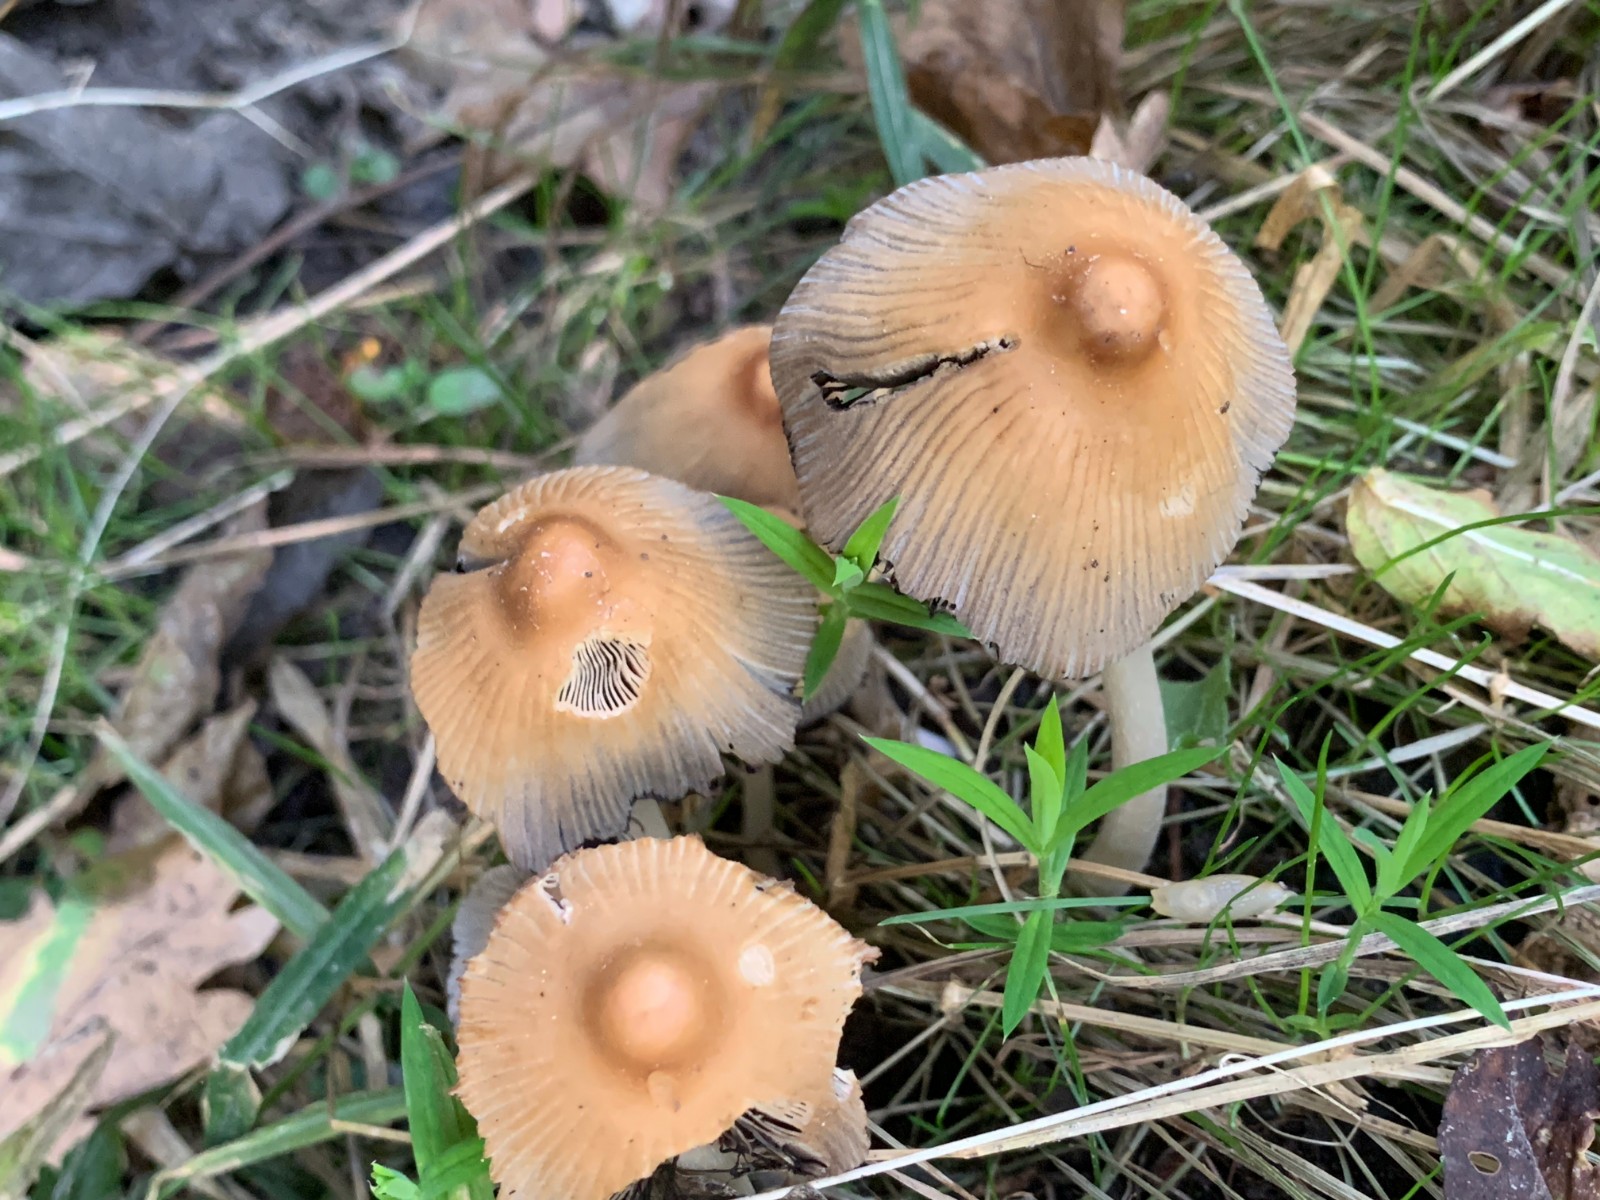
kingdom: Fungi
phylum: Basidiomycota
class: Agaricomycetes
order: Agaricales
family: Psathyrellaceae
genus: Coprinellus
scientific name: Coprinellus micaceus
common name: glimmer-blækhat
